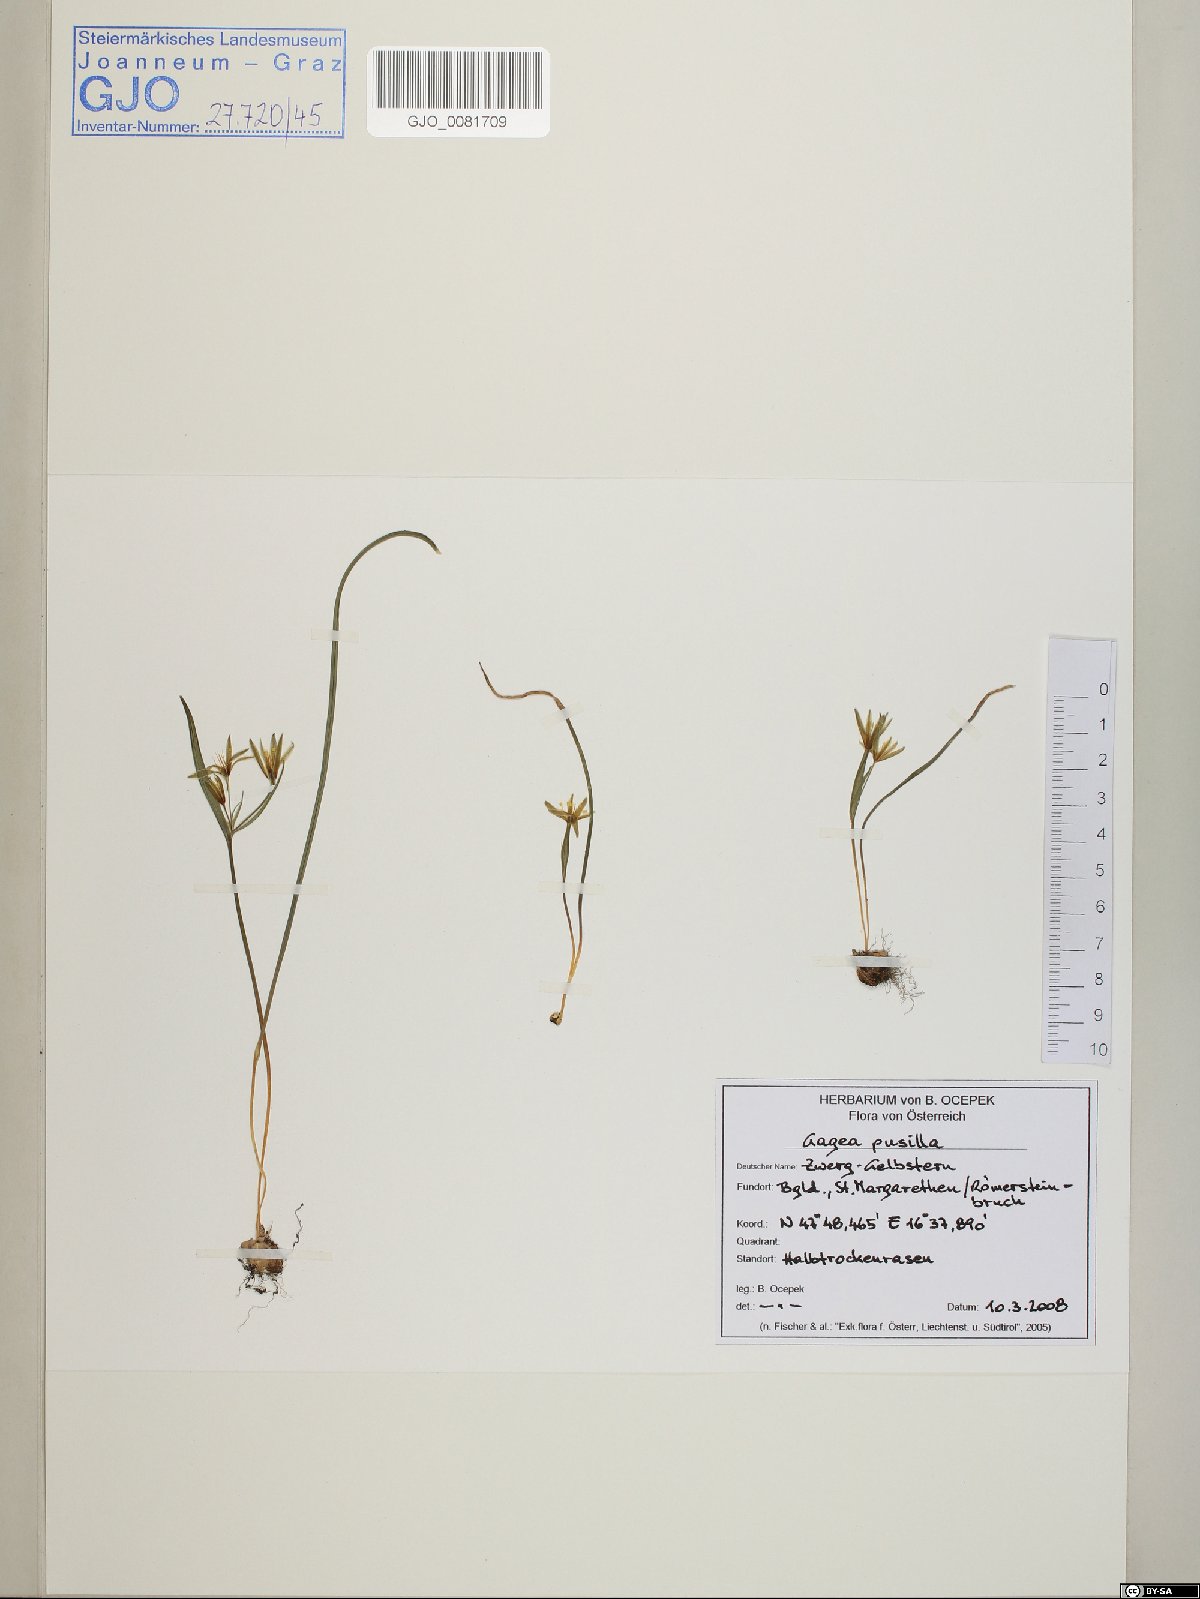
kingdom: Plantae
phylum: Tracheophyta
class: Liliopsida
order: Liliales
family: Liliaceae
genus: Gagea
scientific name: Gagea pusilla
